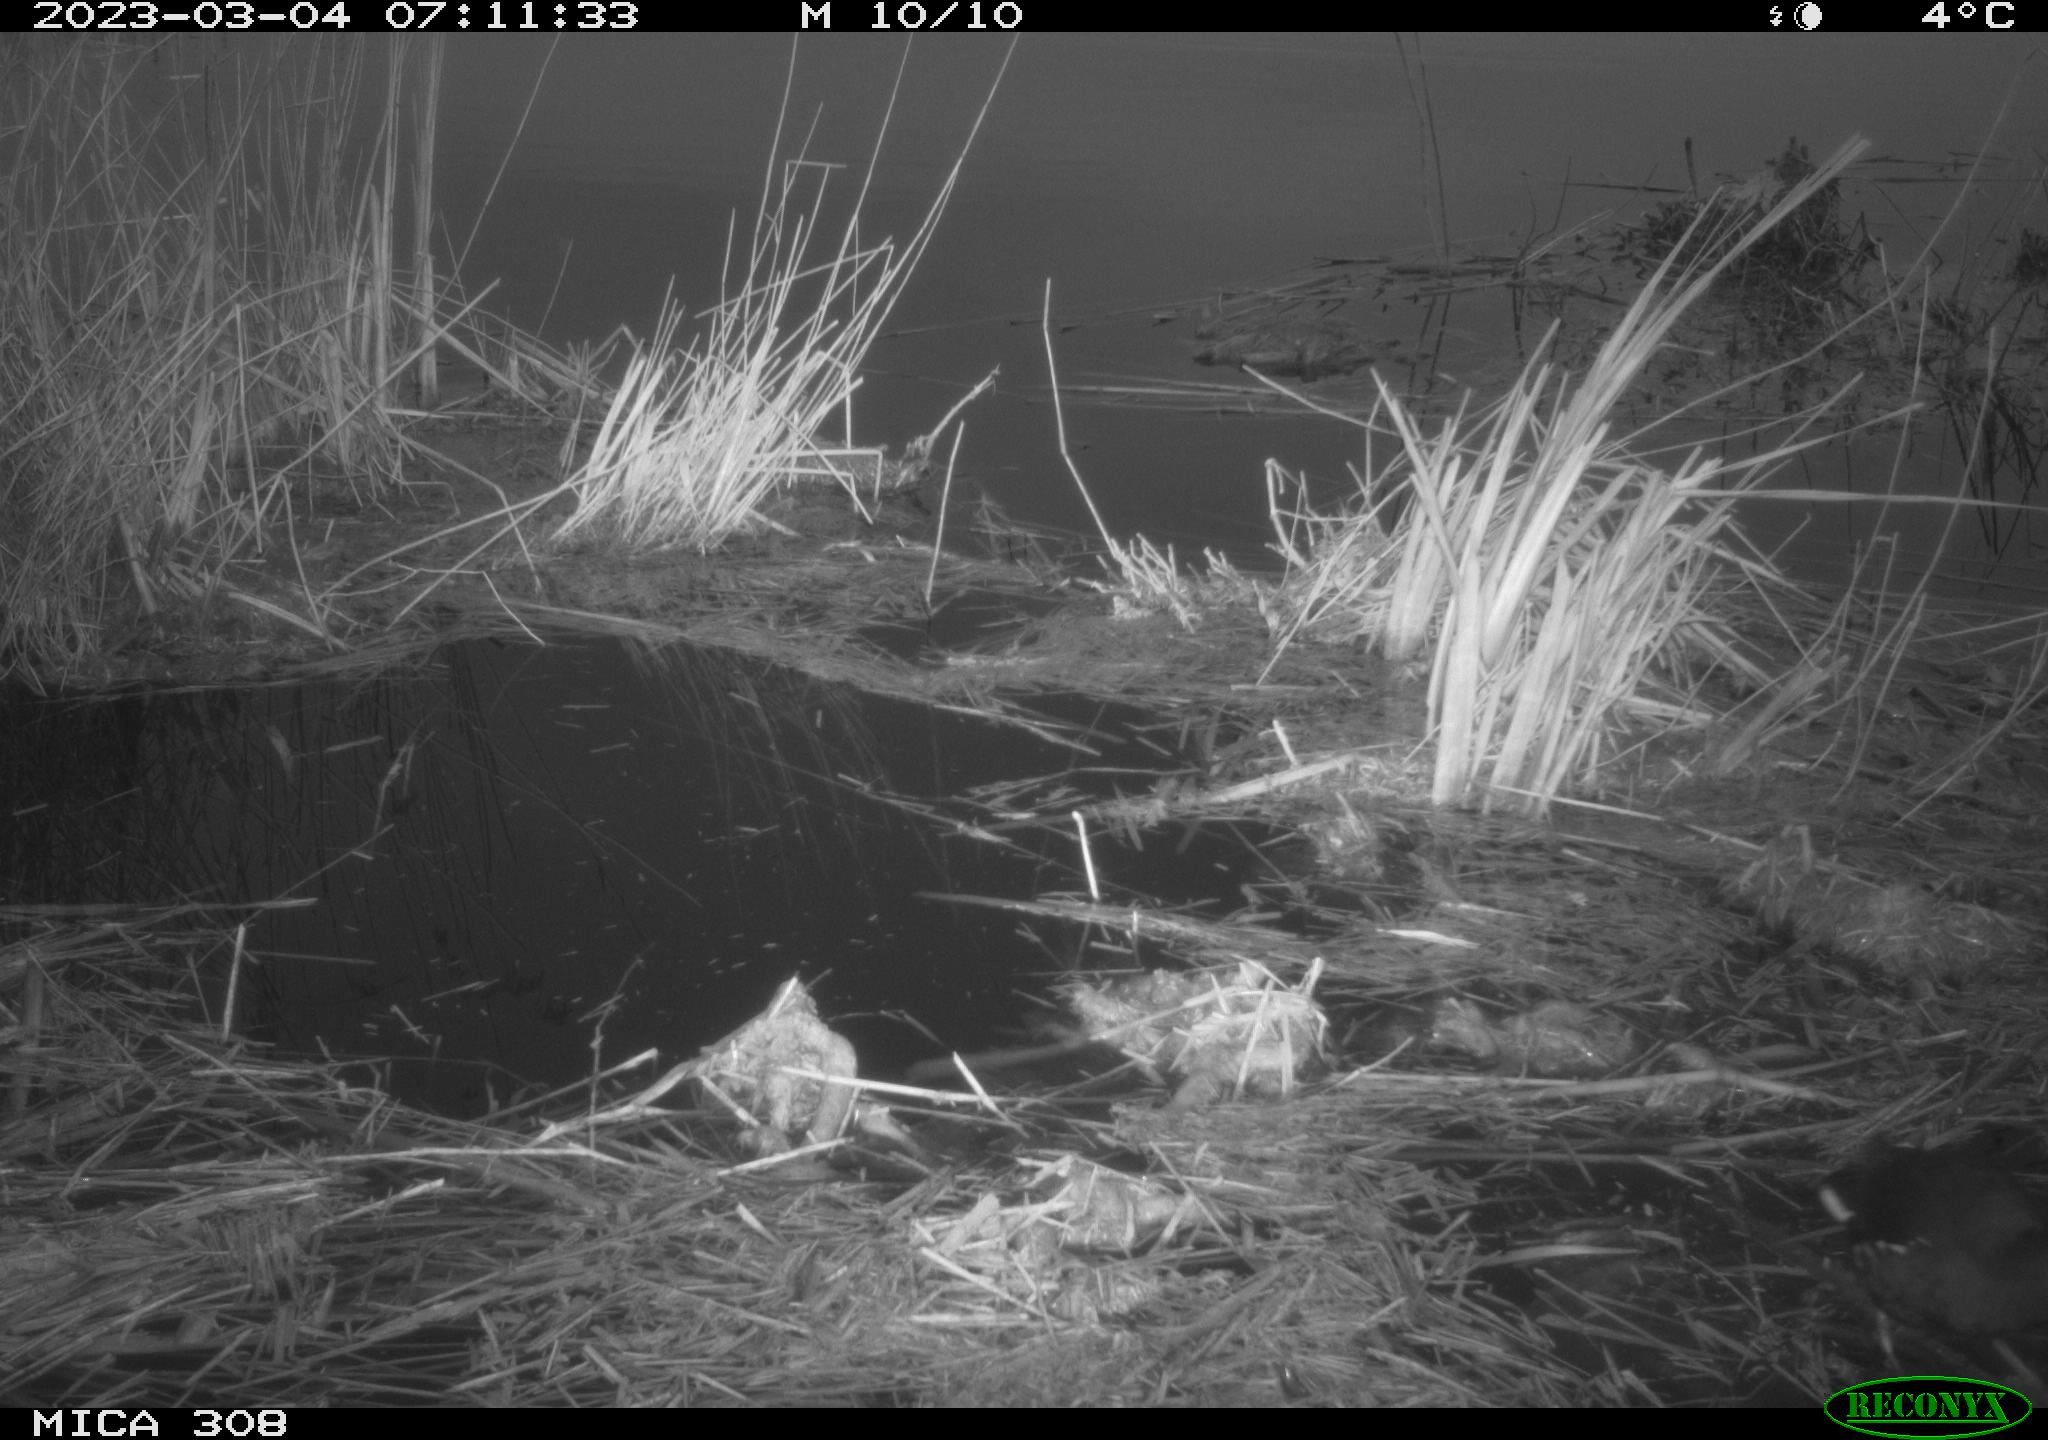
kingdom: Animalia
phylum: Chordata
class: Aves
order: Gruiformes
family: Rallidae
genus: Gallinula
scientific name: Gallinula chloropus
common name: Common moorhen
